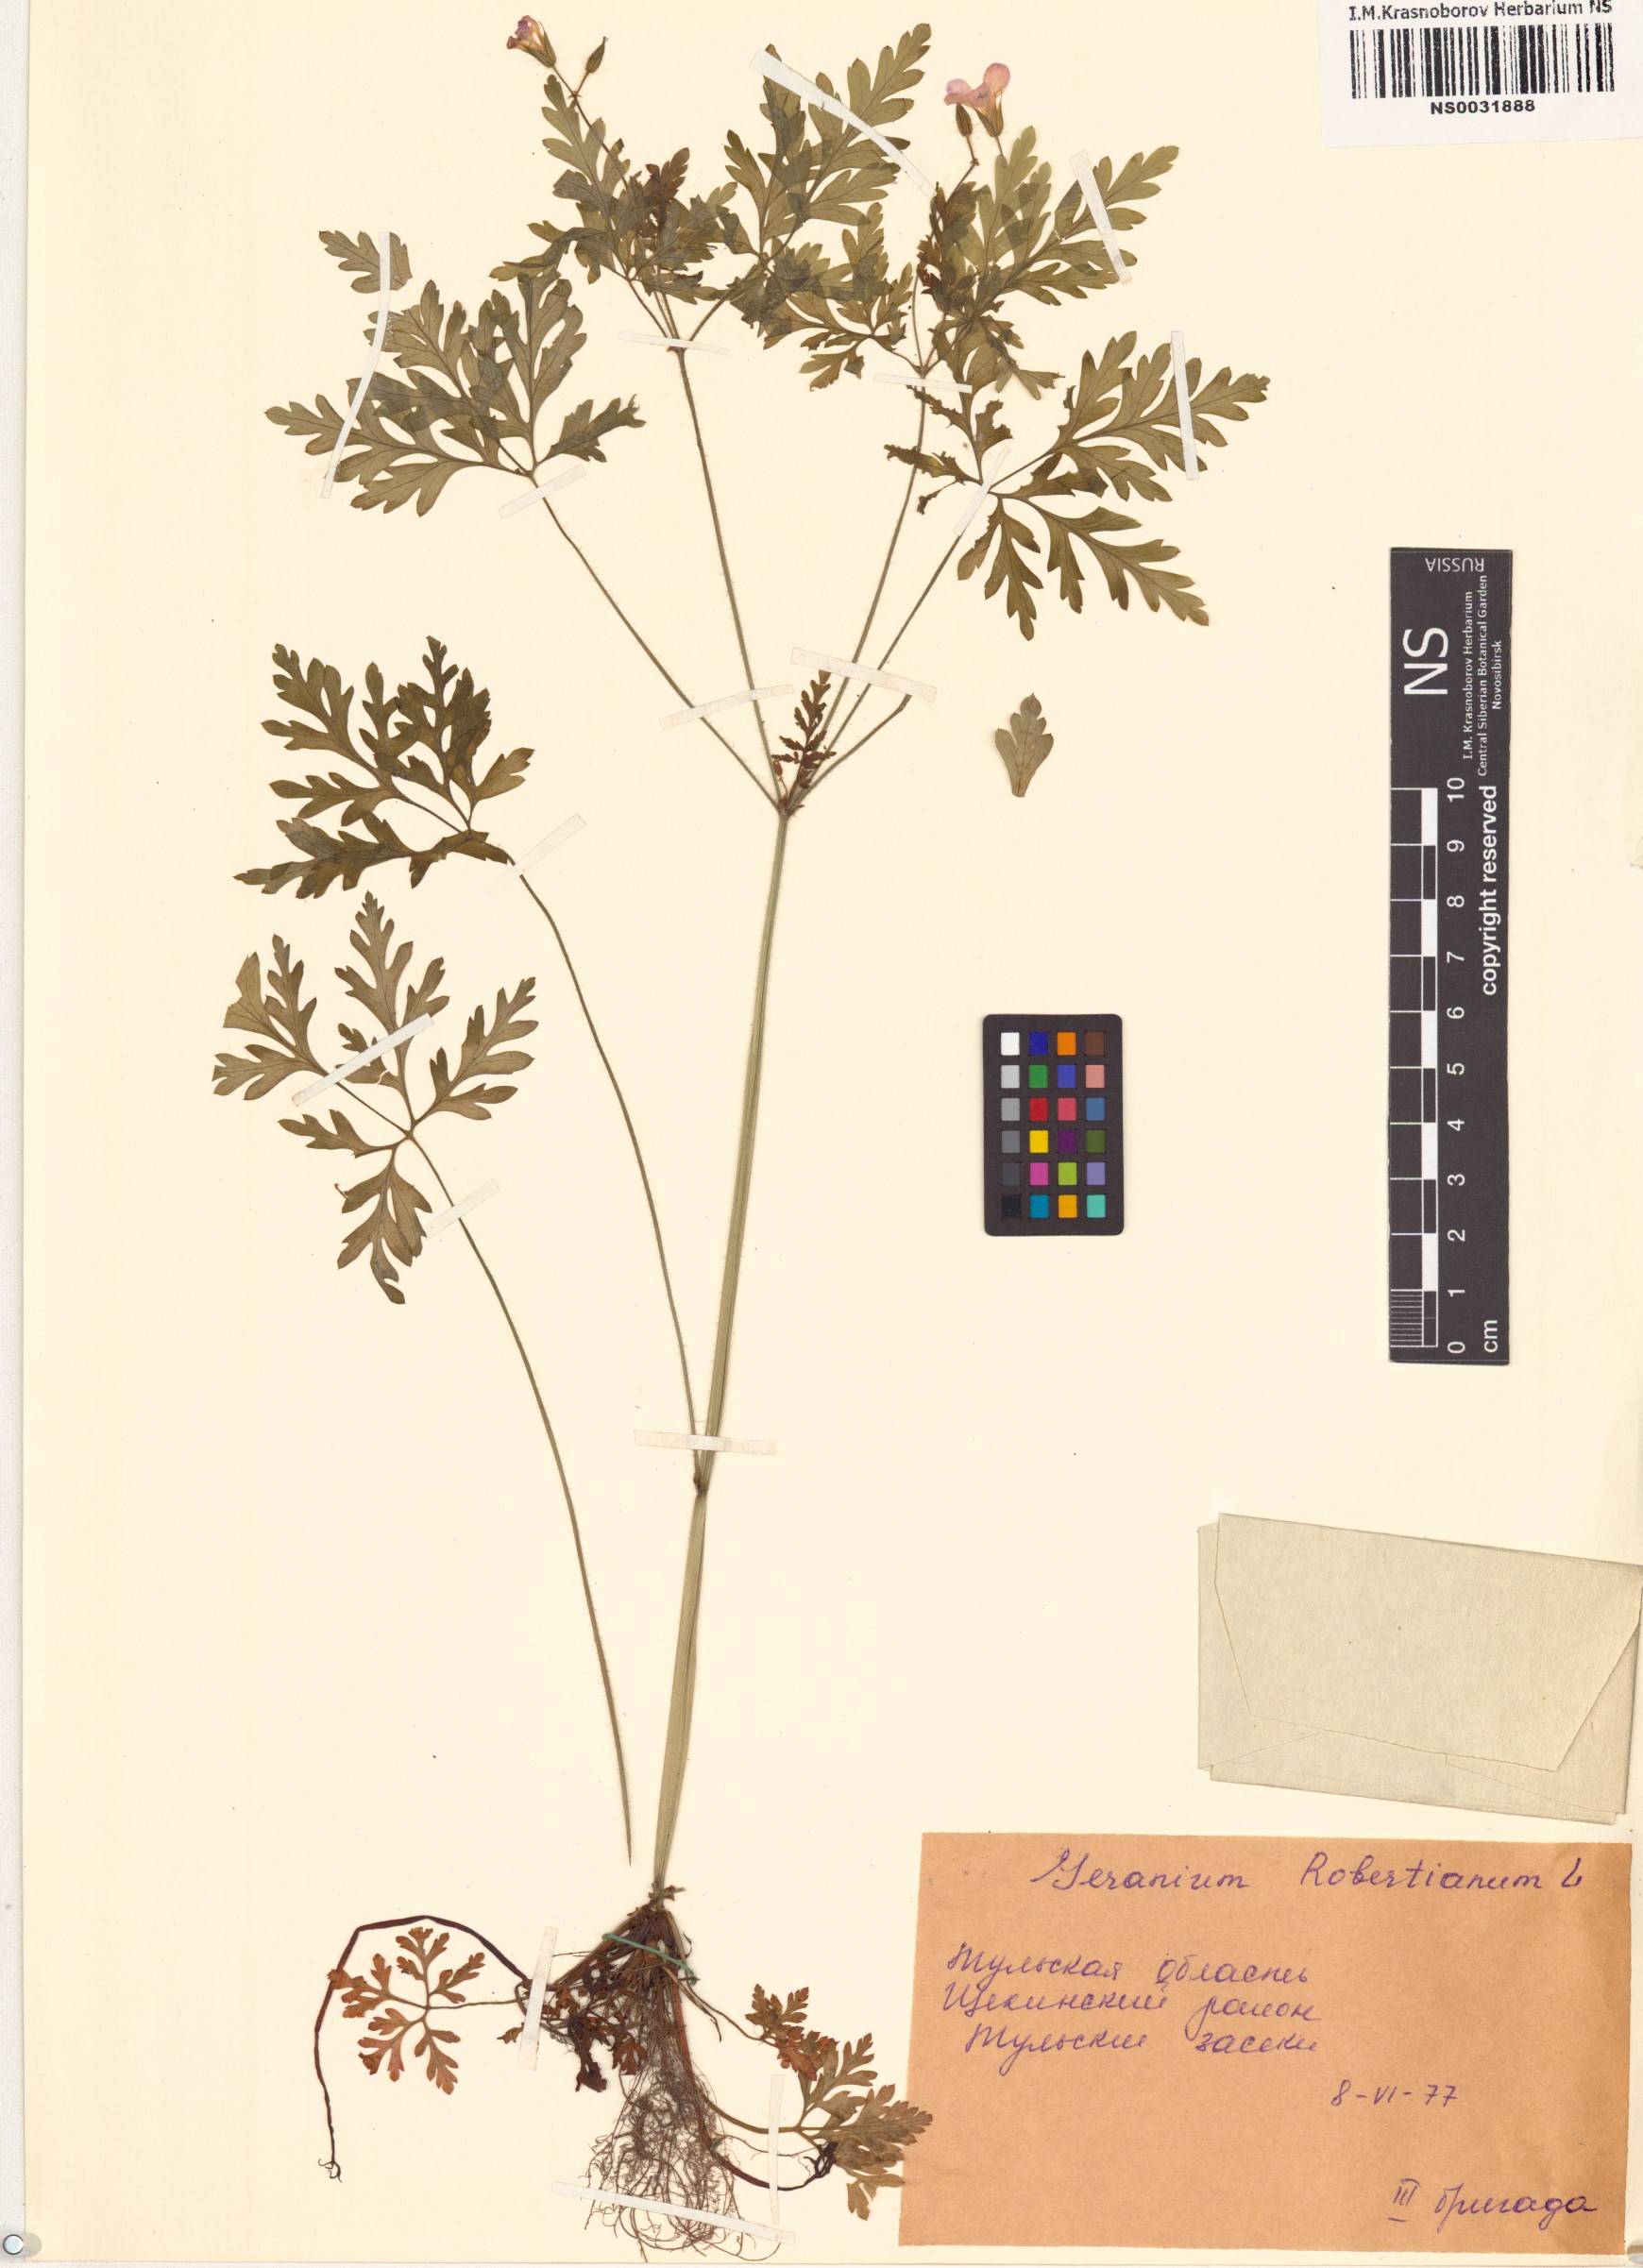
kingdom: Plantae
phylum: Tracheophyta
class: Magnoliopsida
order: Geraniales
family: Geraniaceae
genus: Geranium
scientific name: Geranium robertianum
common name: Herb-robert
